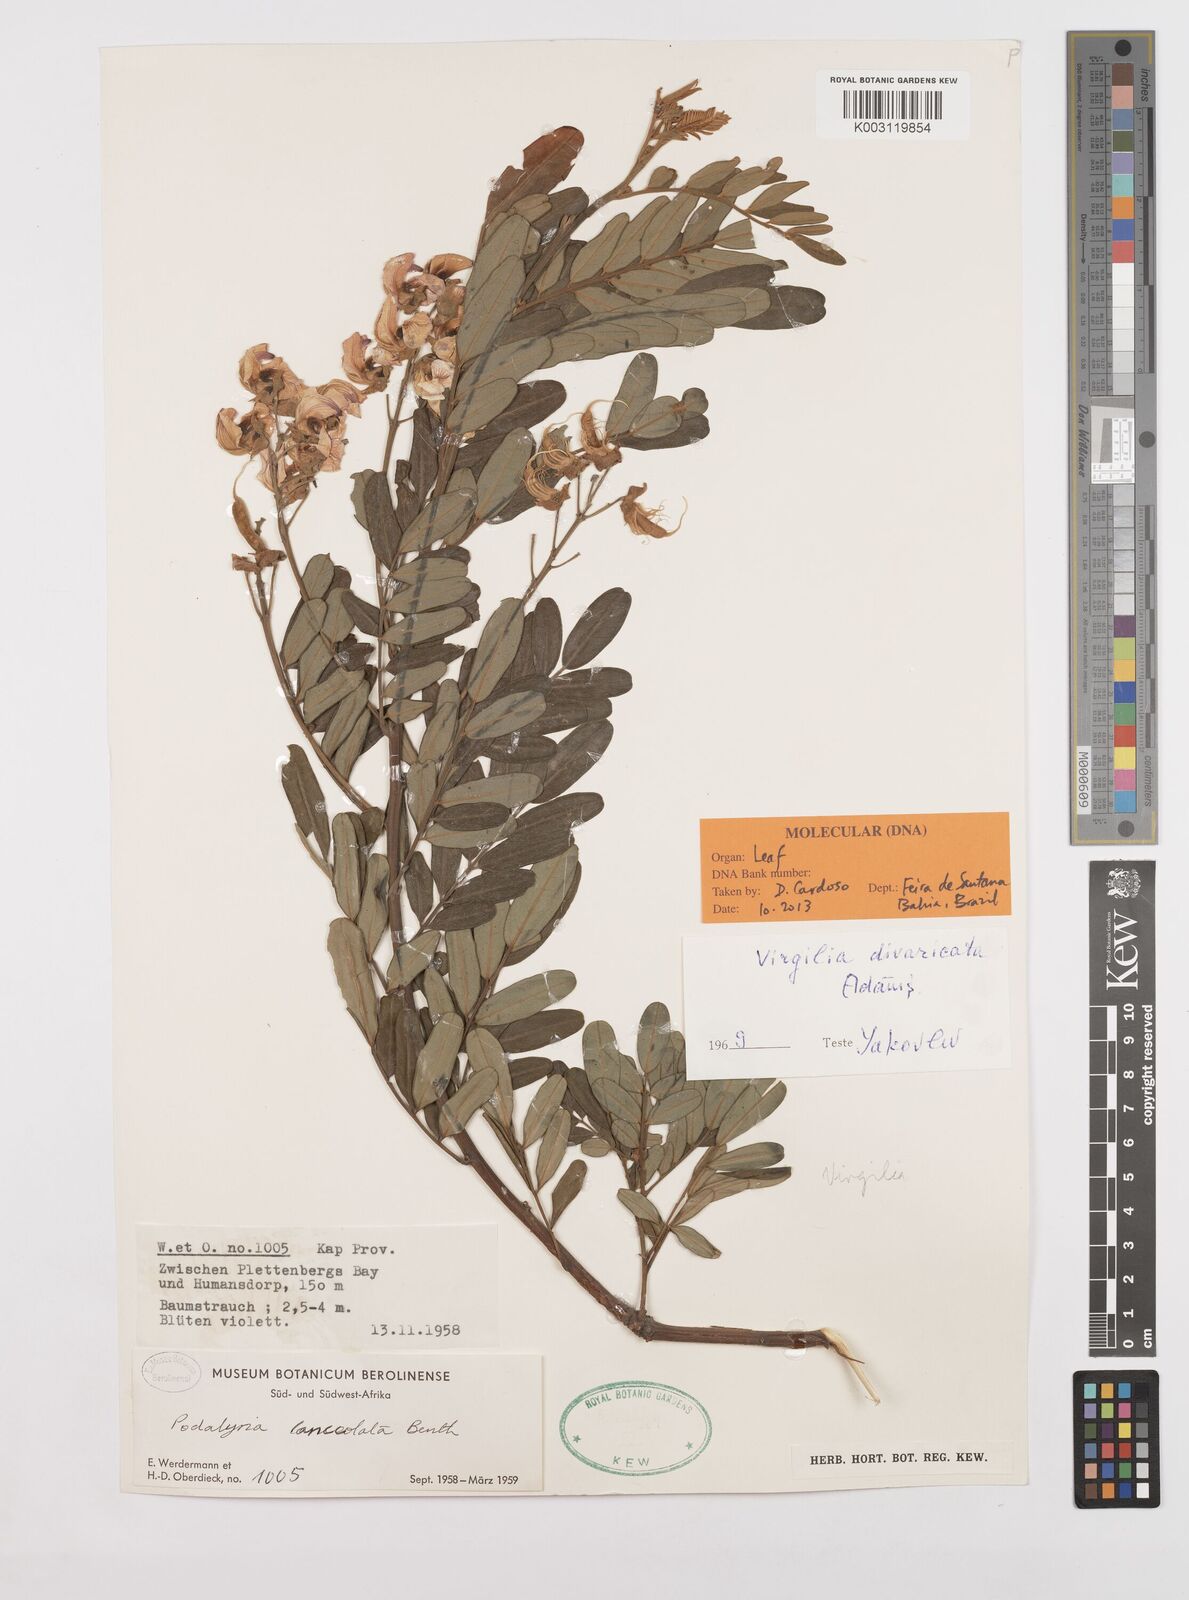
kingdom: Plantae
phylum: Tracheophyta
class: Magnoliopsida
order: Fabales
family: Fabaceae
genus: Virgilia
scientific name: Virgilia divaricata
